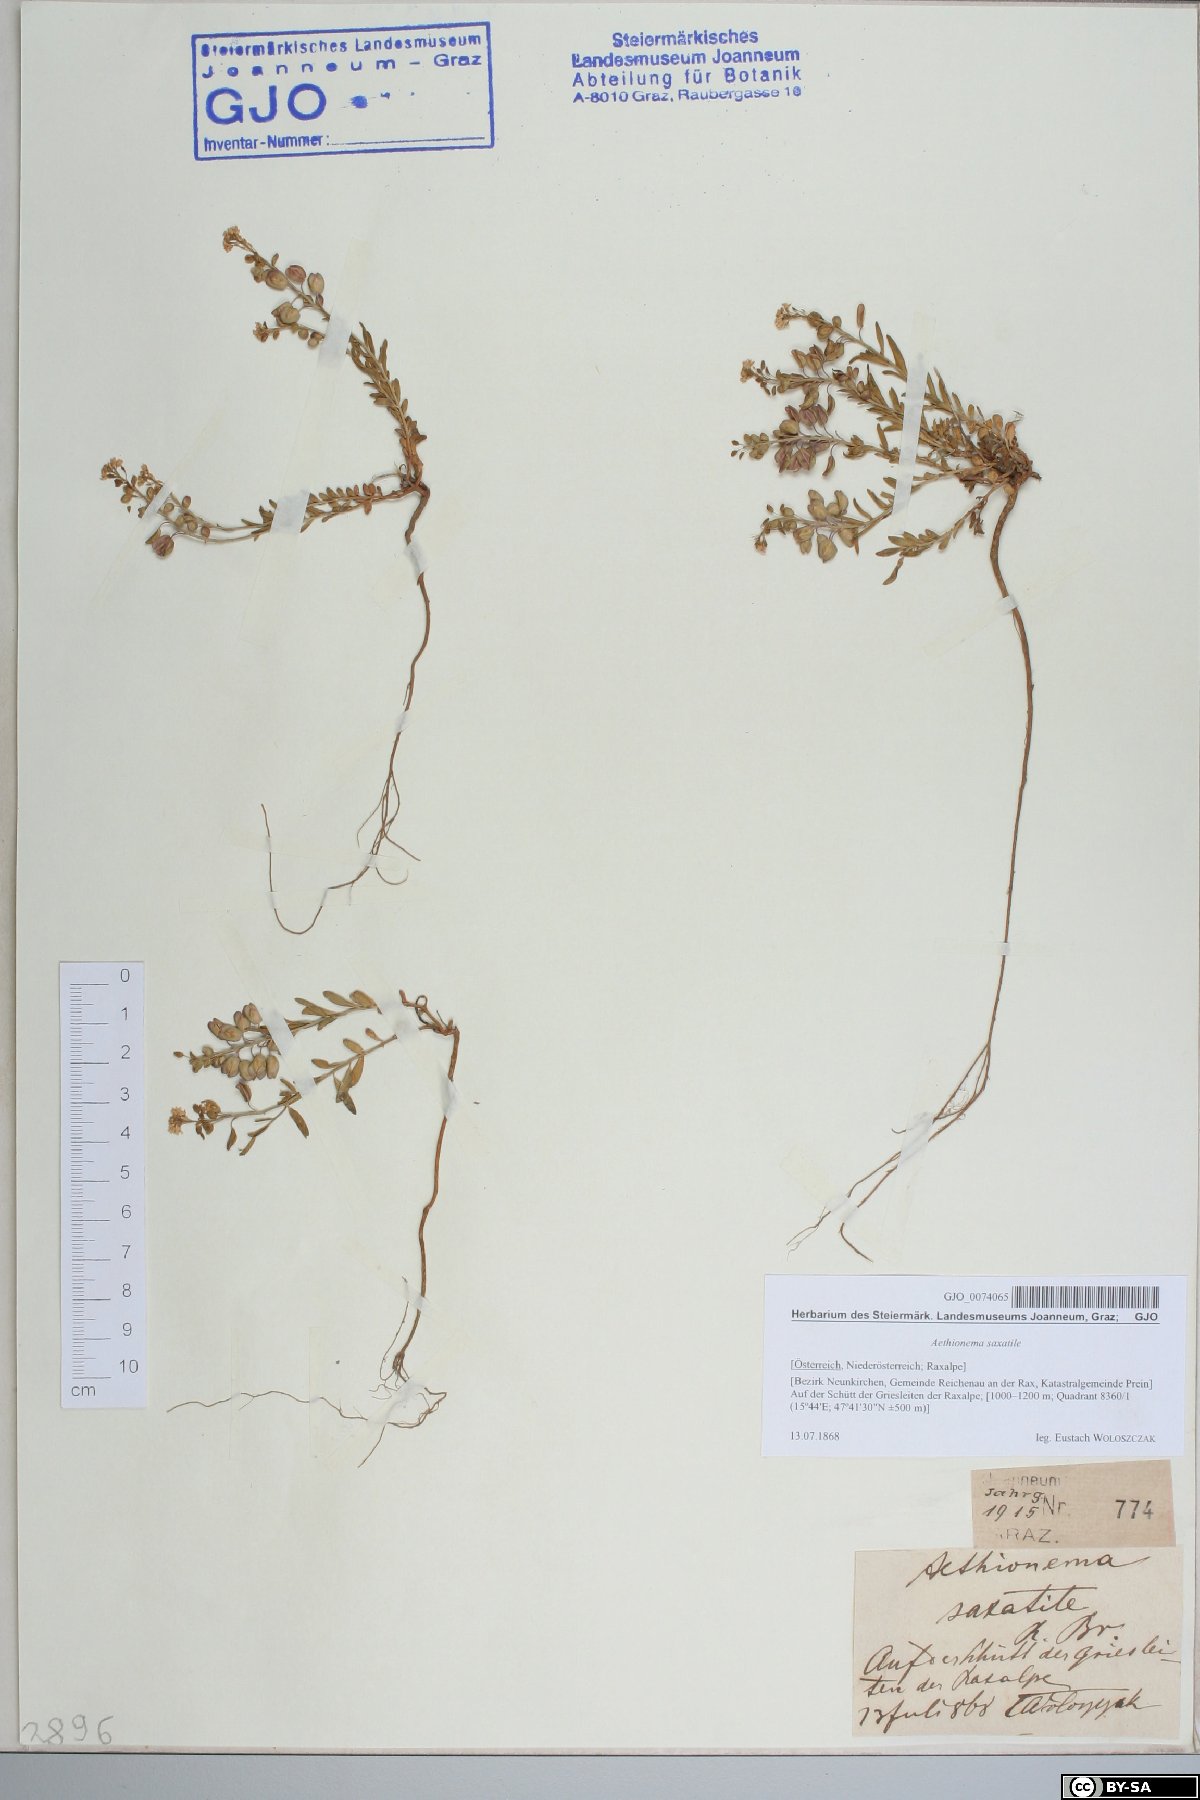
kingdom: Plantae
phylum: Tracheophyta
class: Magnoliopsida
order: Brassicales
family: Brassicaceae
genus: Aethionema
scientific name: Aethionema saxatile
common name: Burnt candytuft
